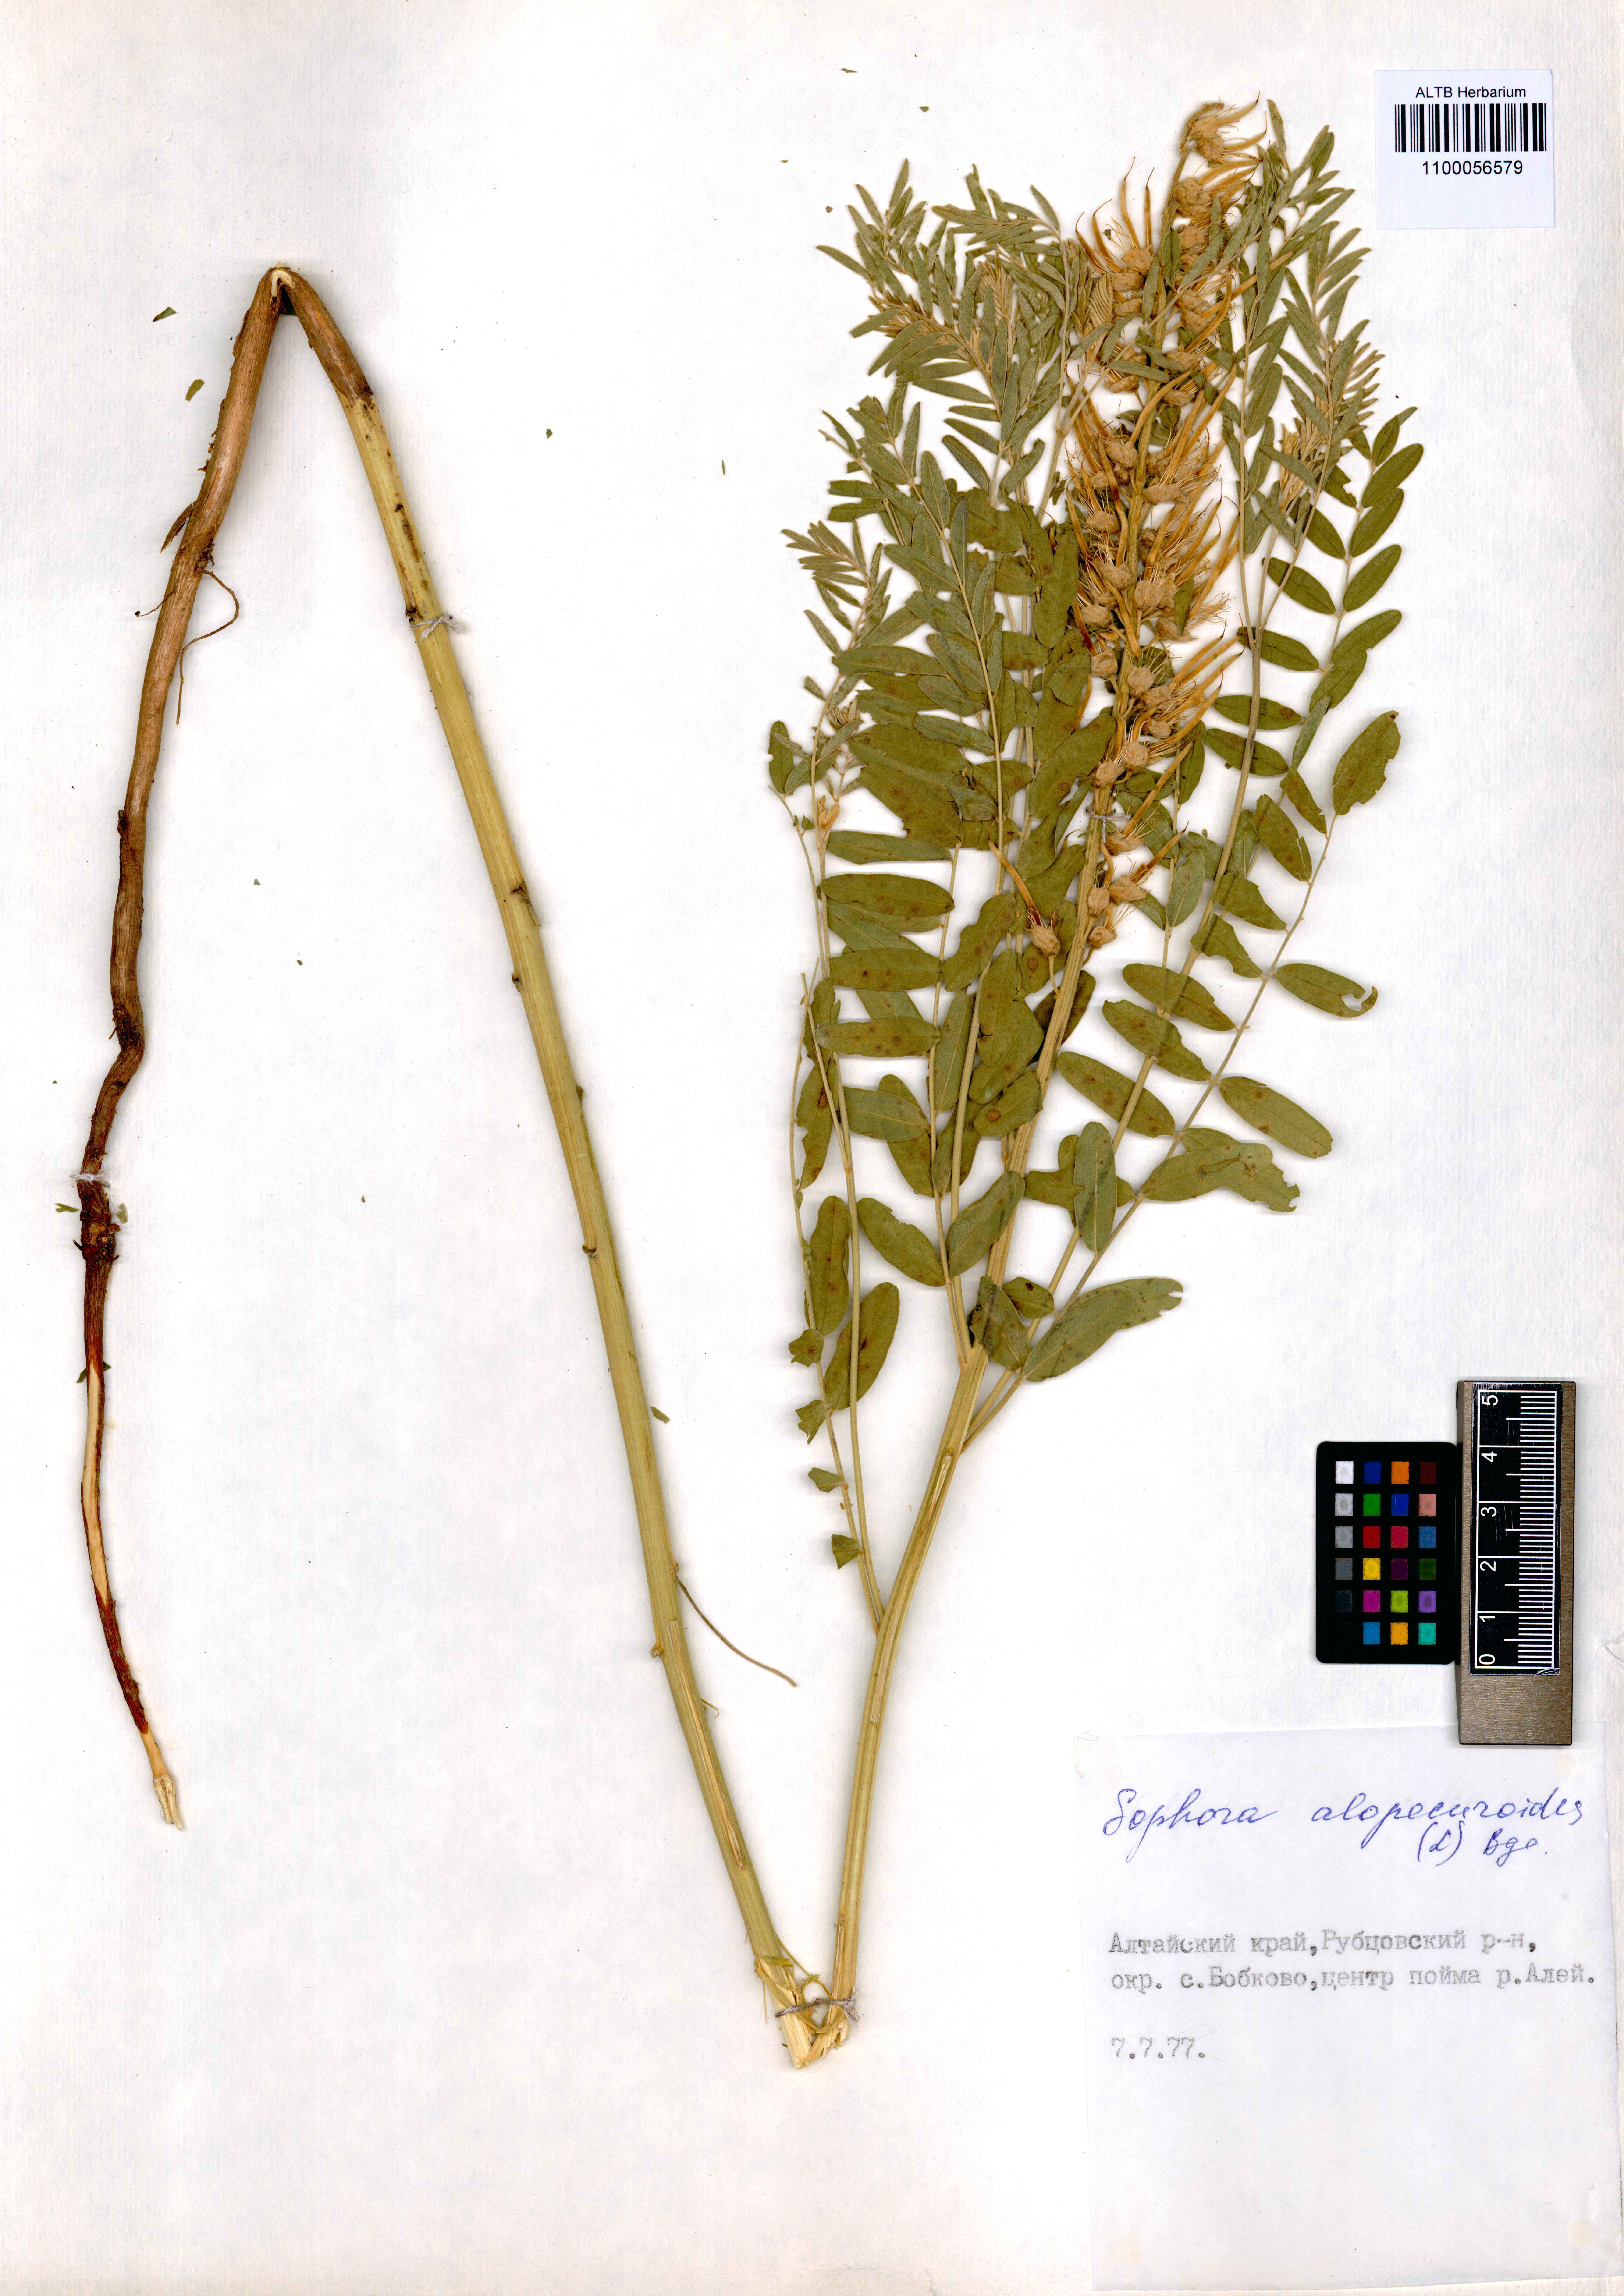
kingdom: Plantae
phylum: Tracheophyta
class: Magnoliopsida
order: Fabales
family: Fabaceae
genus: Sophora
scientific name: Sophora alopecuroides
